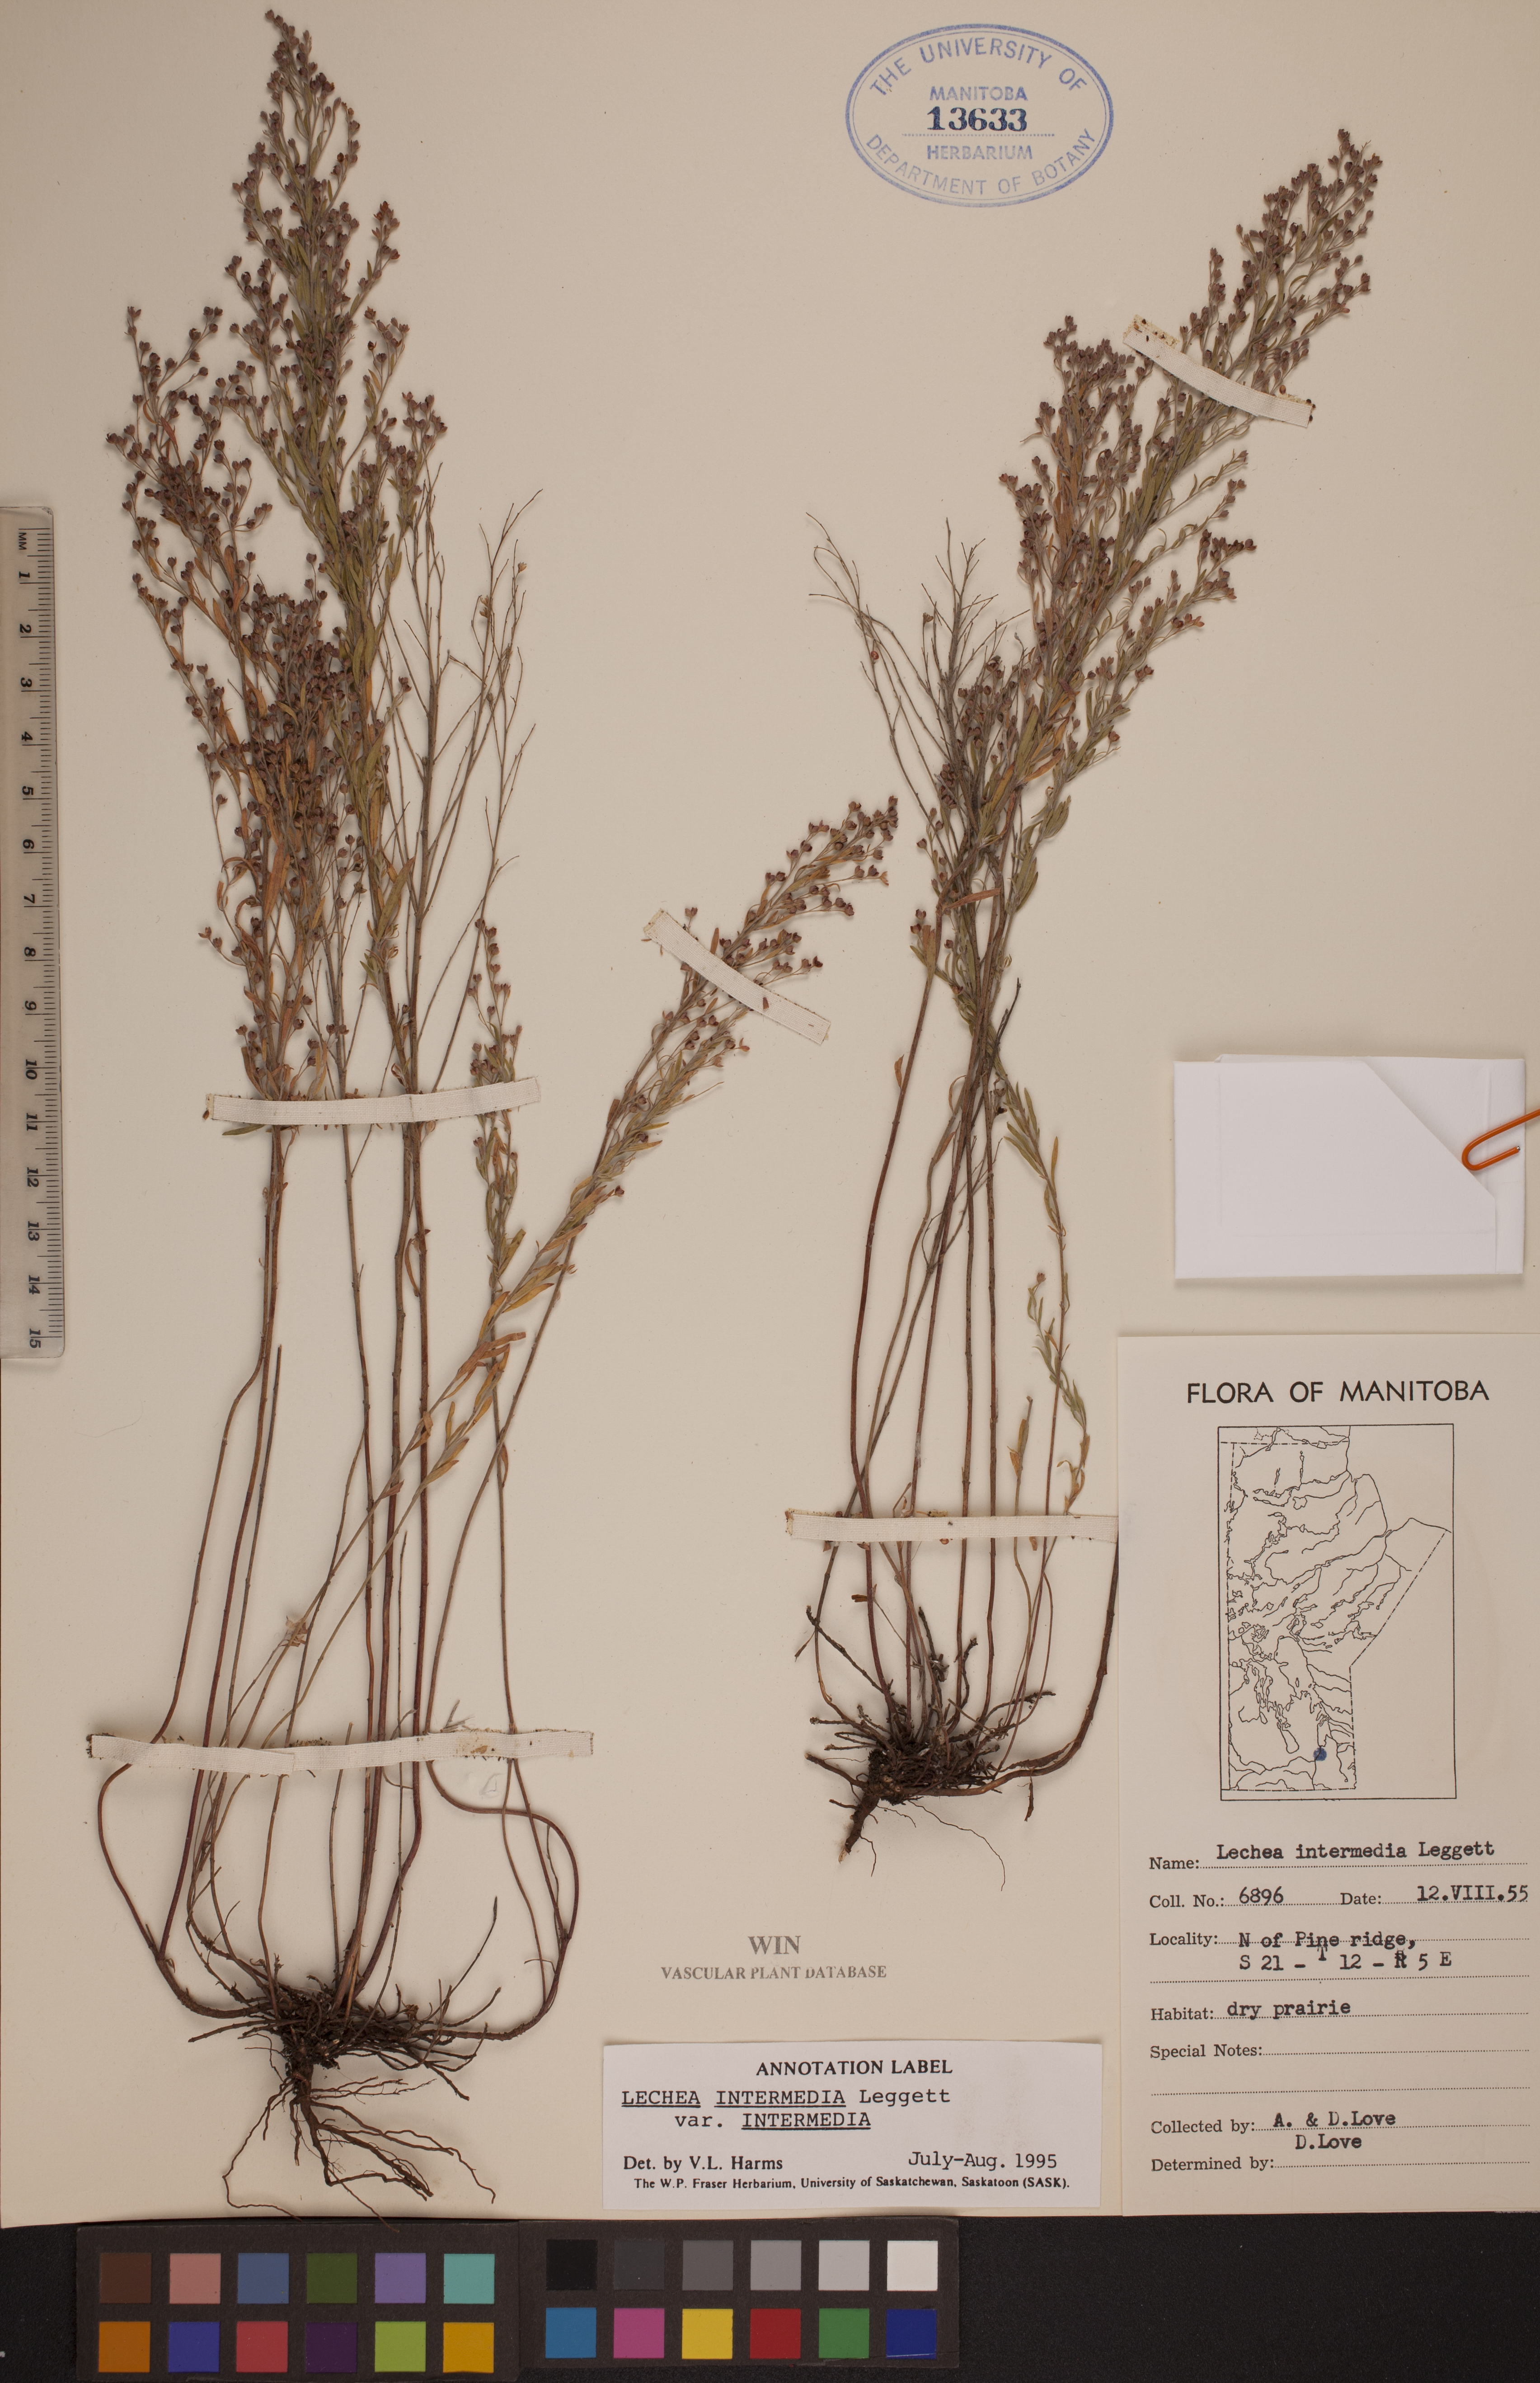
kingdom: Plantae
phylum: Tracheophyta
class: Magnoliopsida
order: Malvales
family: Cistaceae
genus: Lechea
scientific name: Lechea intermedia
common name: Intermediate pinweed
